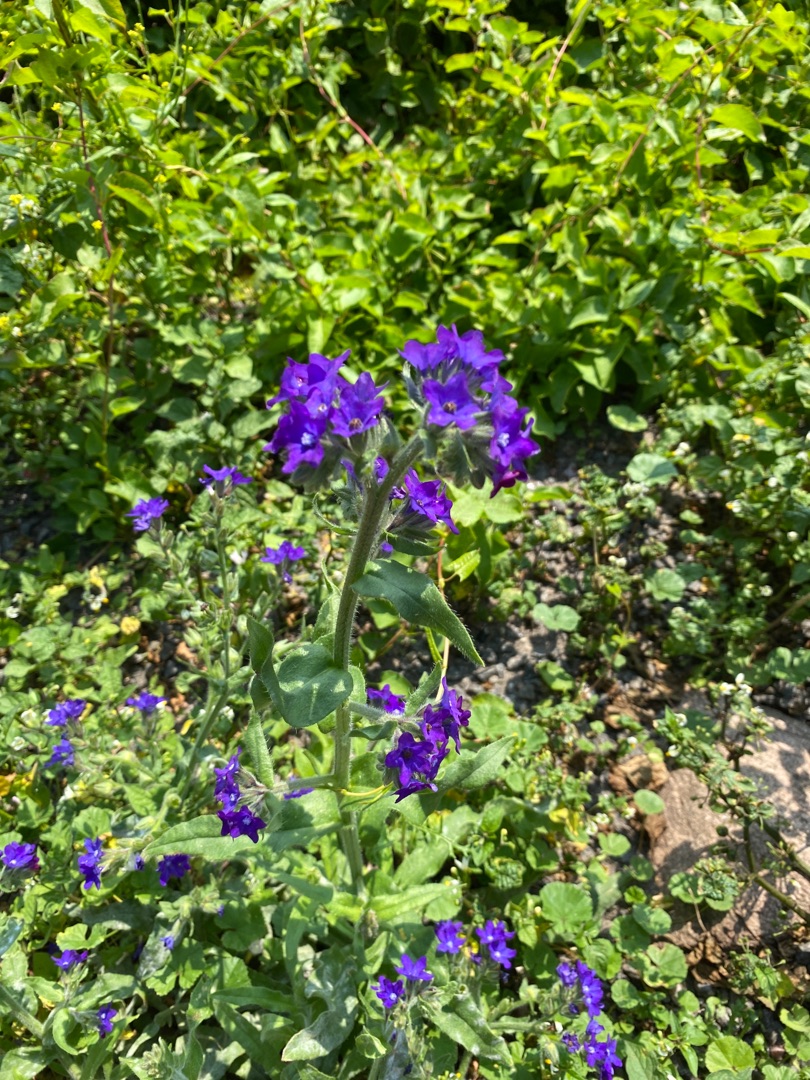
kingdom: Plantae
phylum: Tracheophyta
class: Magnoliopsida
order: Boraginales
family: Boraginaceae
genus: Anchusa
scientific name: Anchusa officinalis
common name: Læge-oksetunge
